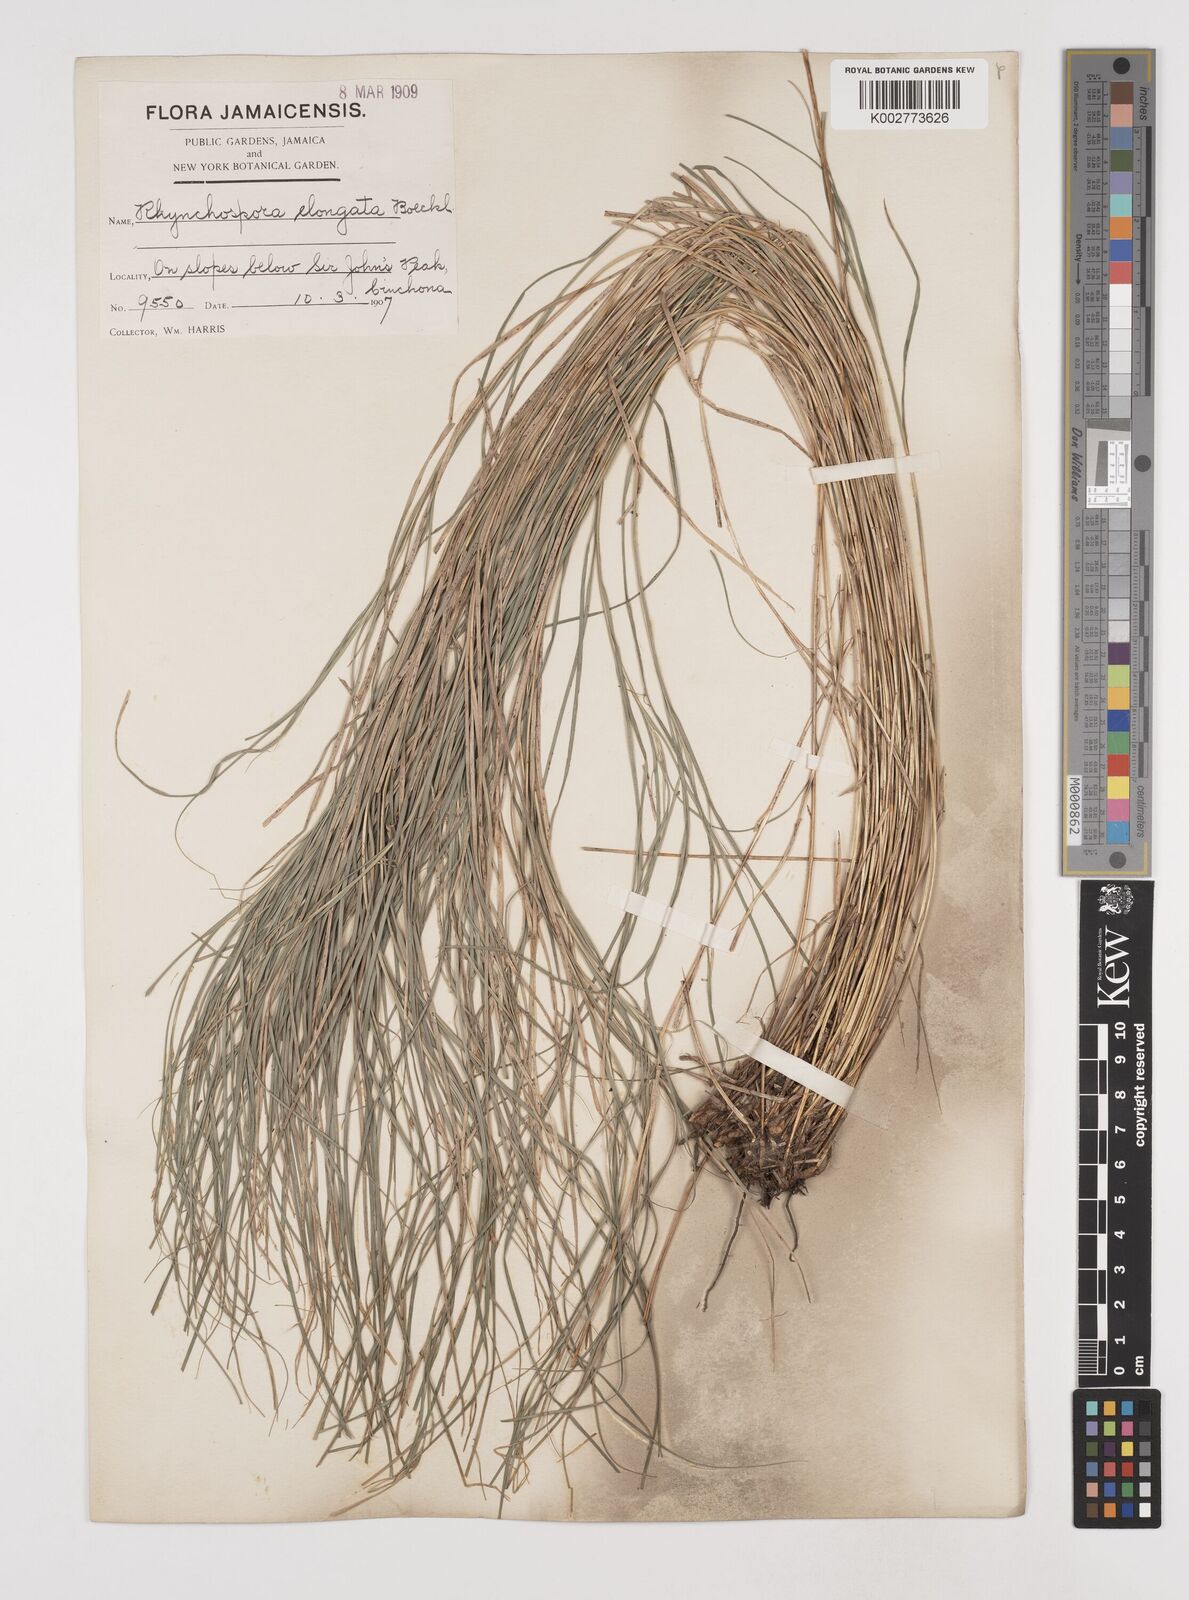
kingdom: Plantae
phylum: Tracheophyta
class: Liliopsida
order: Poales
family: Cyperaceae
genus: Rhynchospora
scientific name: Rhynchospora biflora
